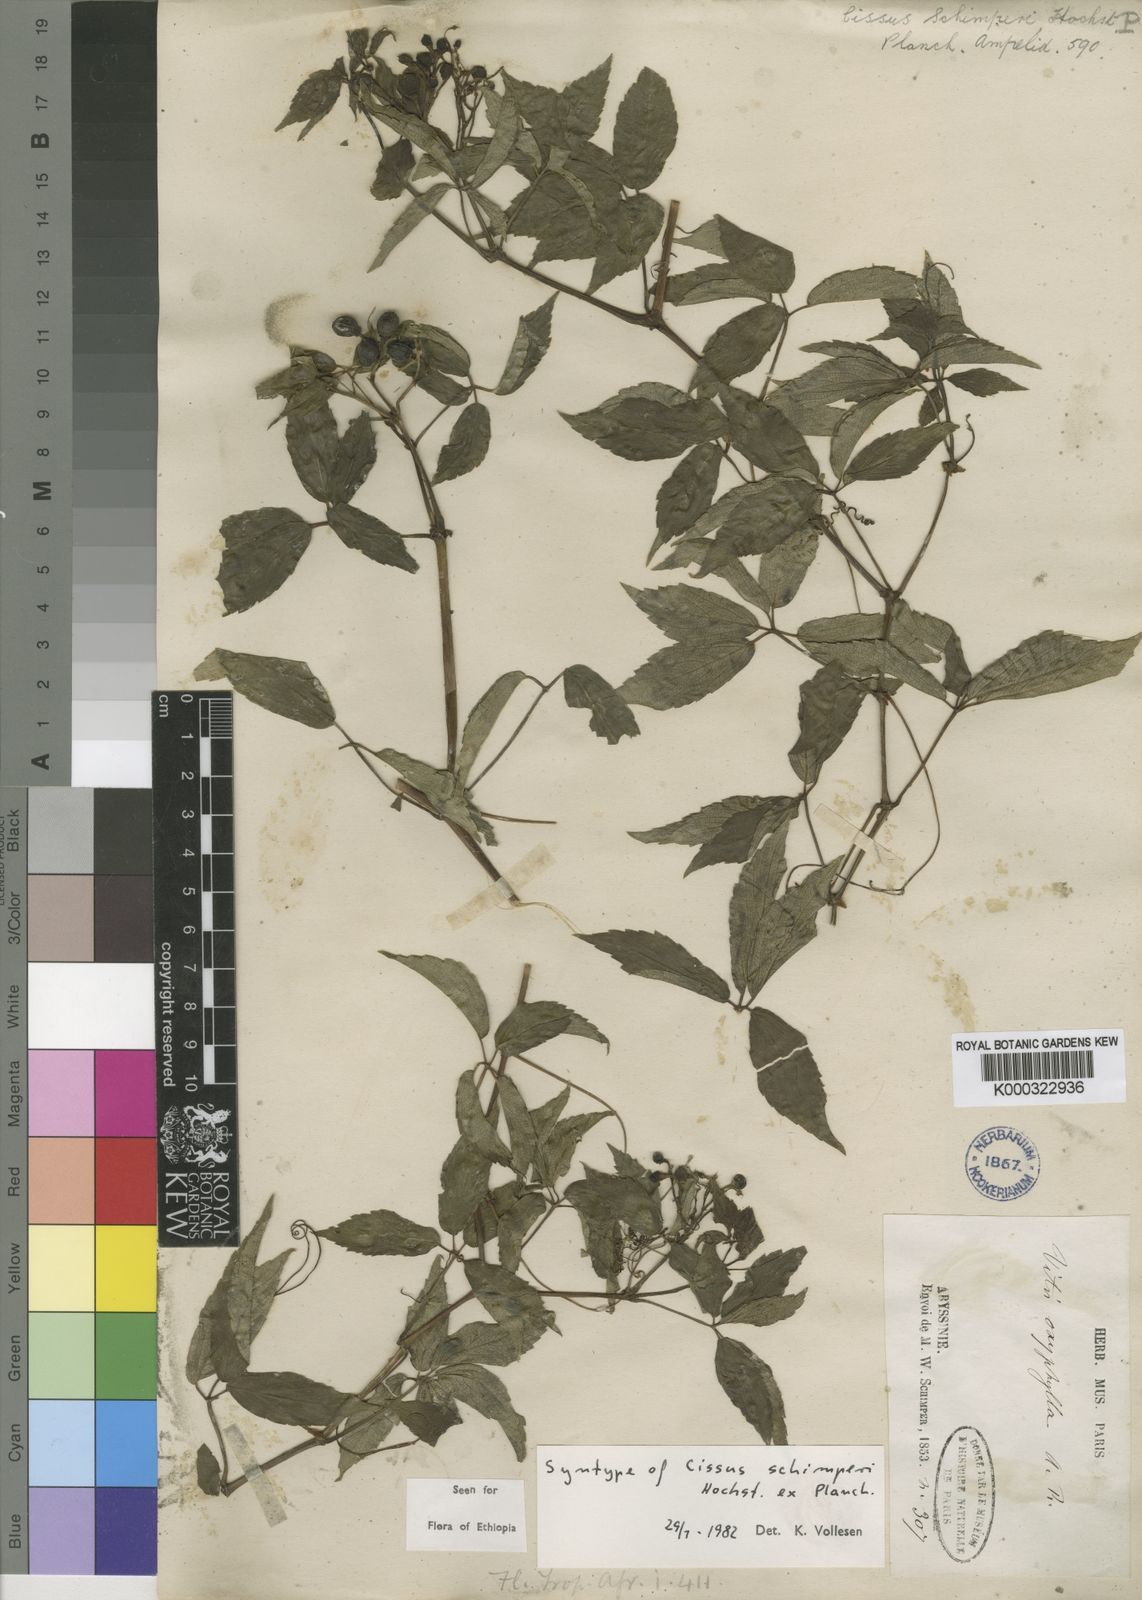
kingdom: Plantae
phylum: Tracheophyta
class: Magnoliopsida
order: Vitales
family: Vitaceae
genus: Cyphostemma
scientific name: Cyphostemma oxyphyllum
